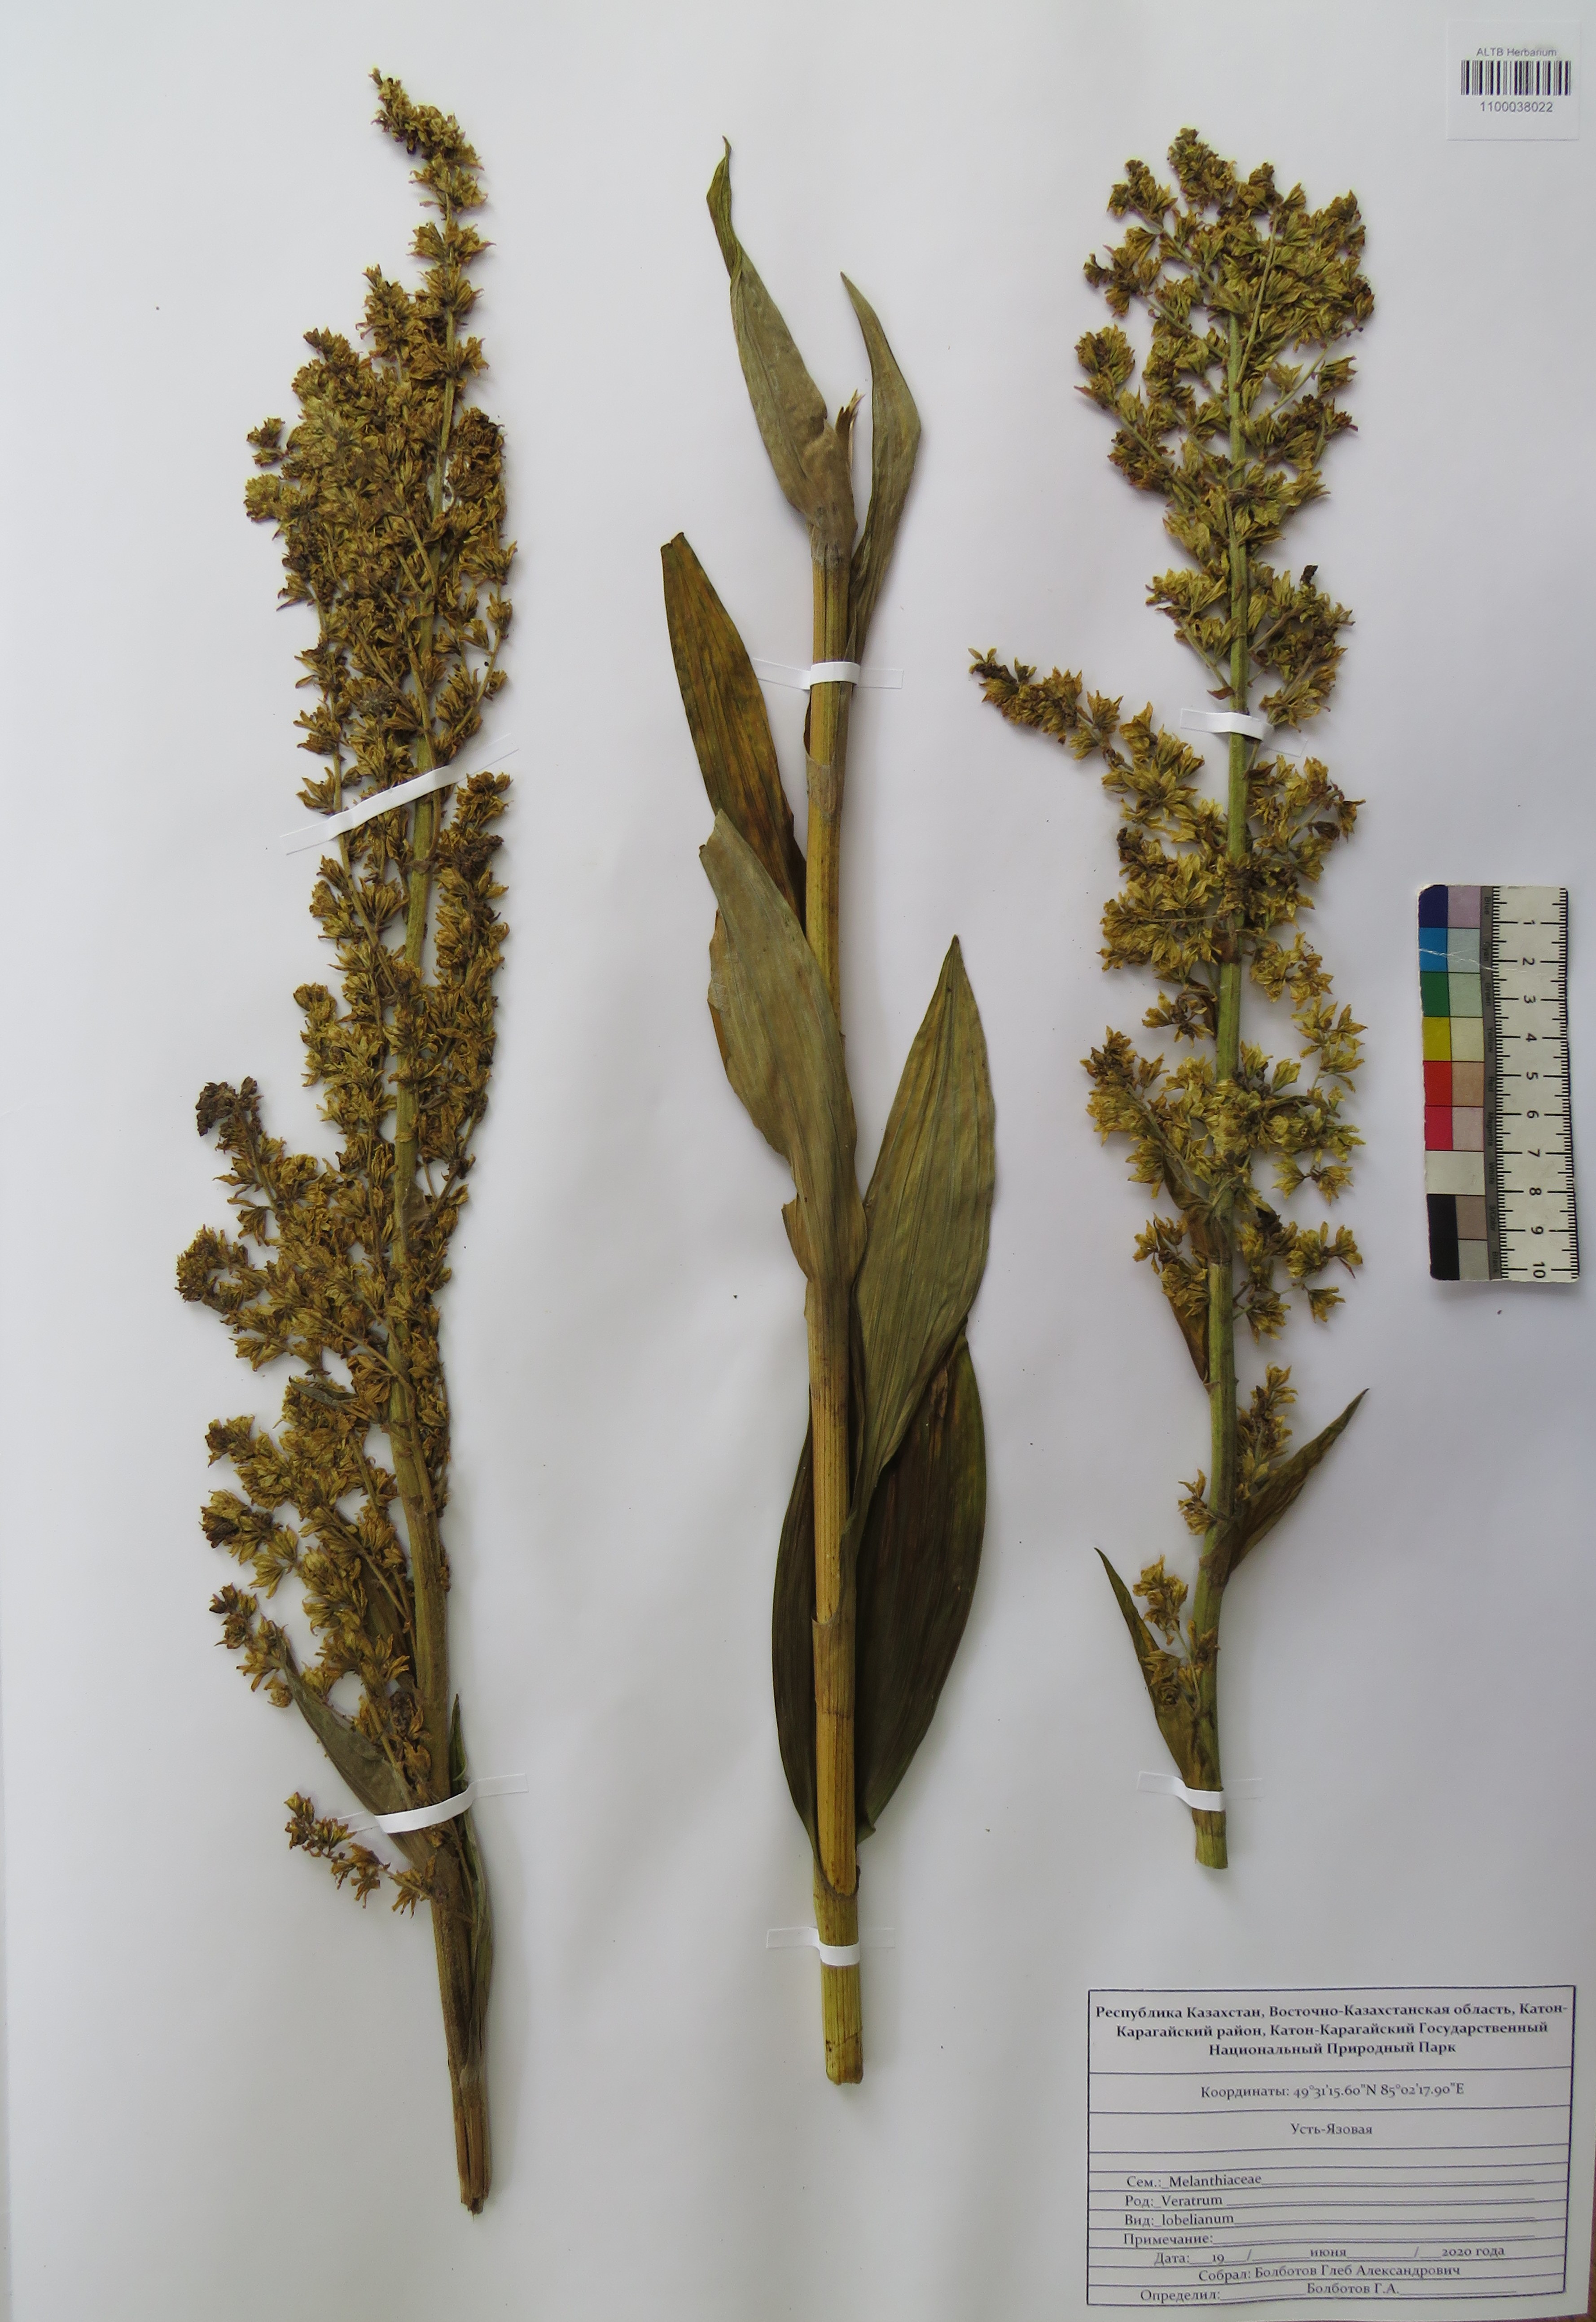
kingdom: Plantae
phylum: Tracheophyta
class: Liliopsida
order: Liliales
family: Melanthiaceae
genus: Veratrum
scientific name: Veratrum lobelianum
